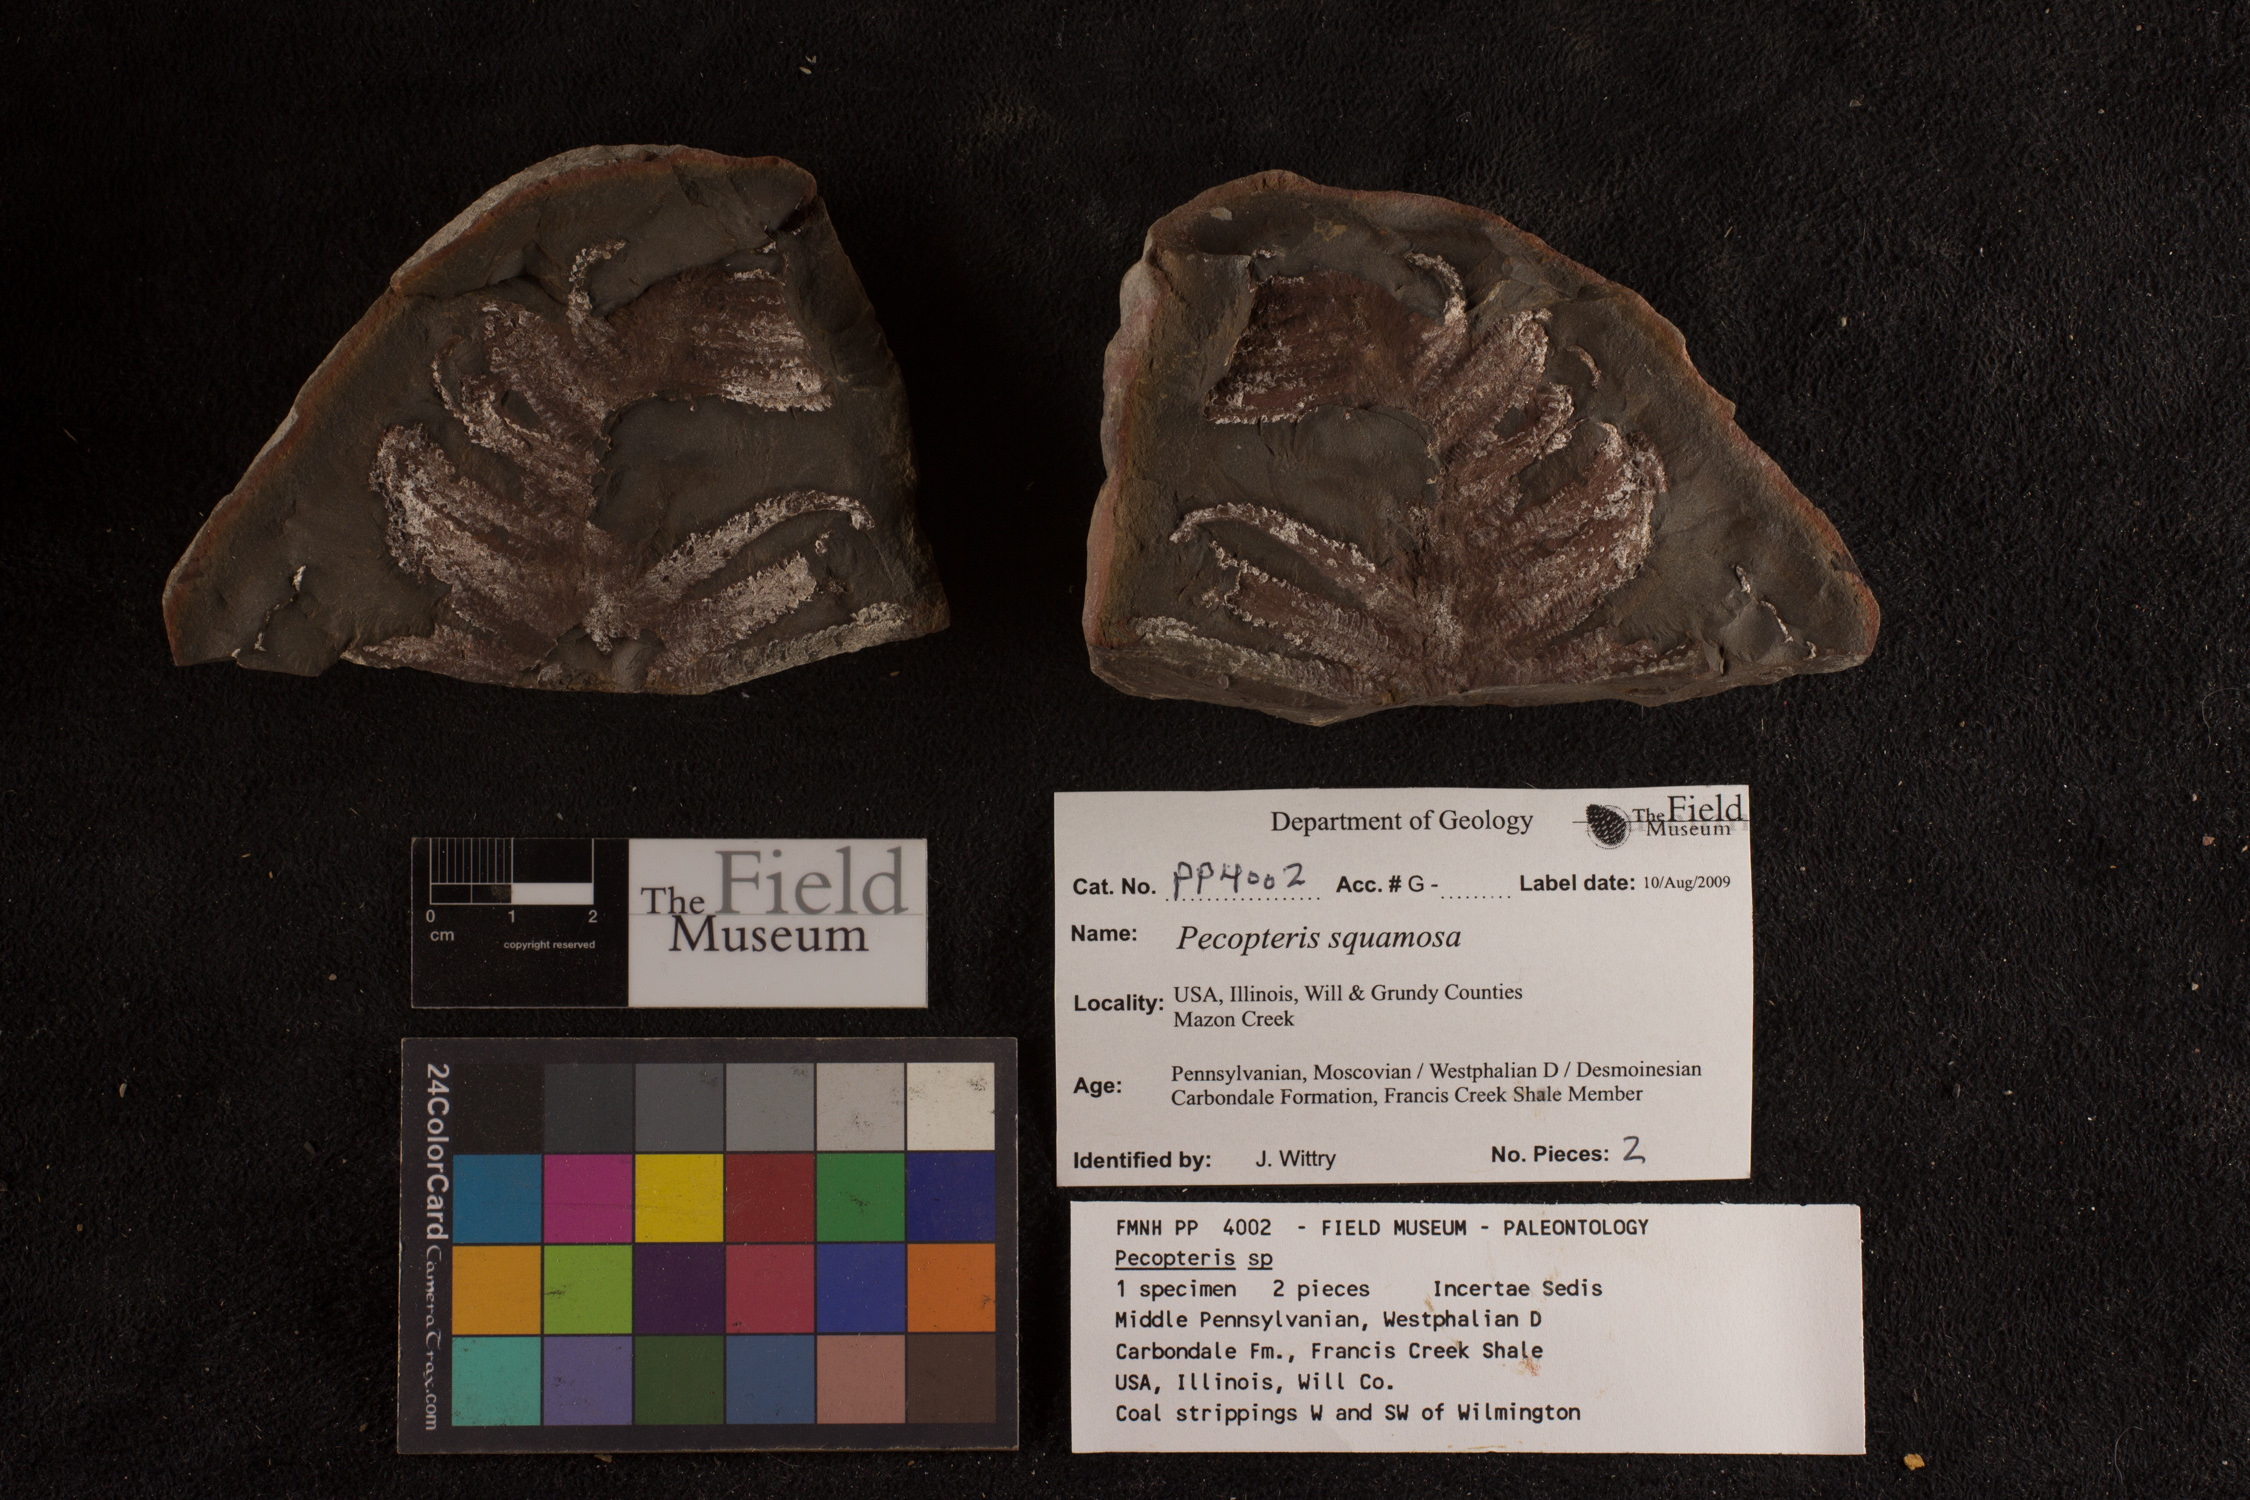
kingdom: Plantae
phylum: Tracheophyta
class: Polypodiopsida
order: Marattiales
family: Asterothecaceae
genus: Pecopteris
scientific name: Pecopteris
